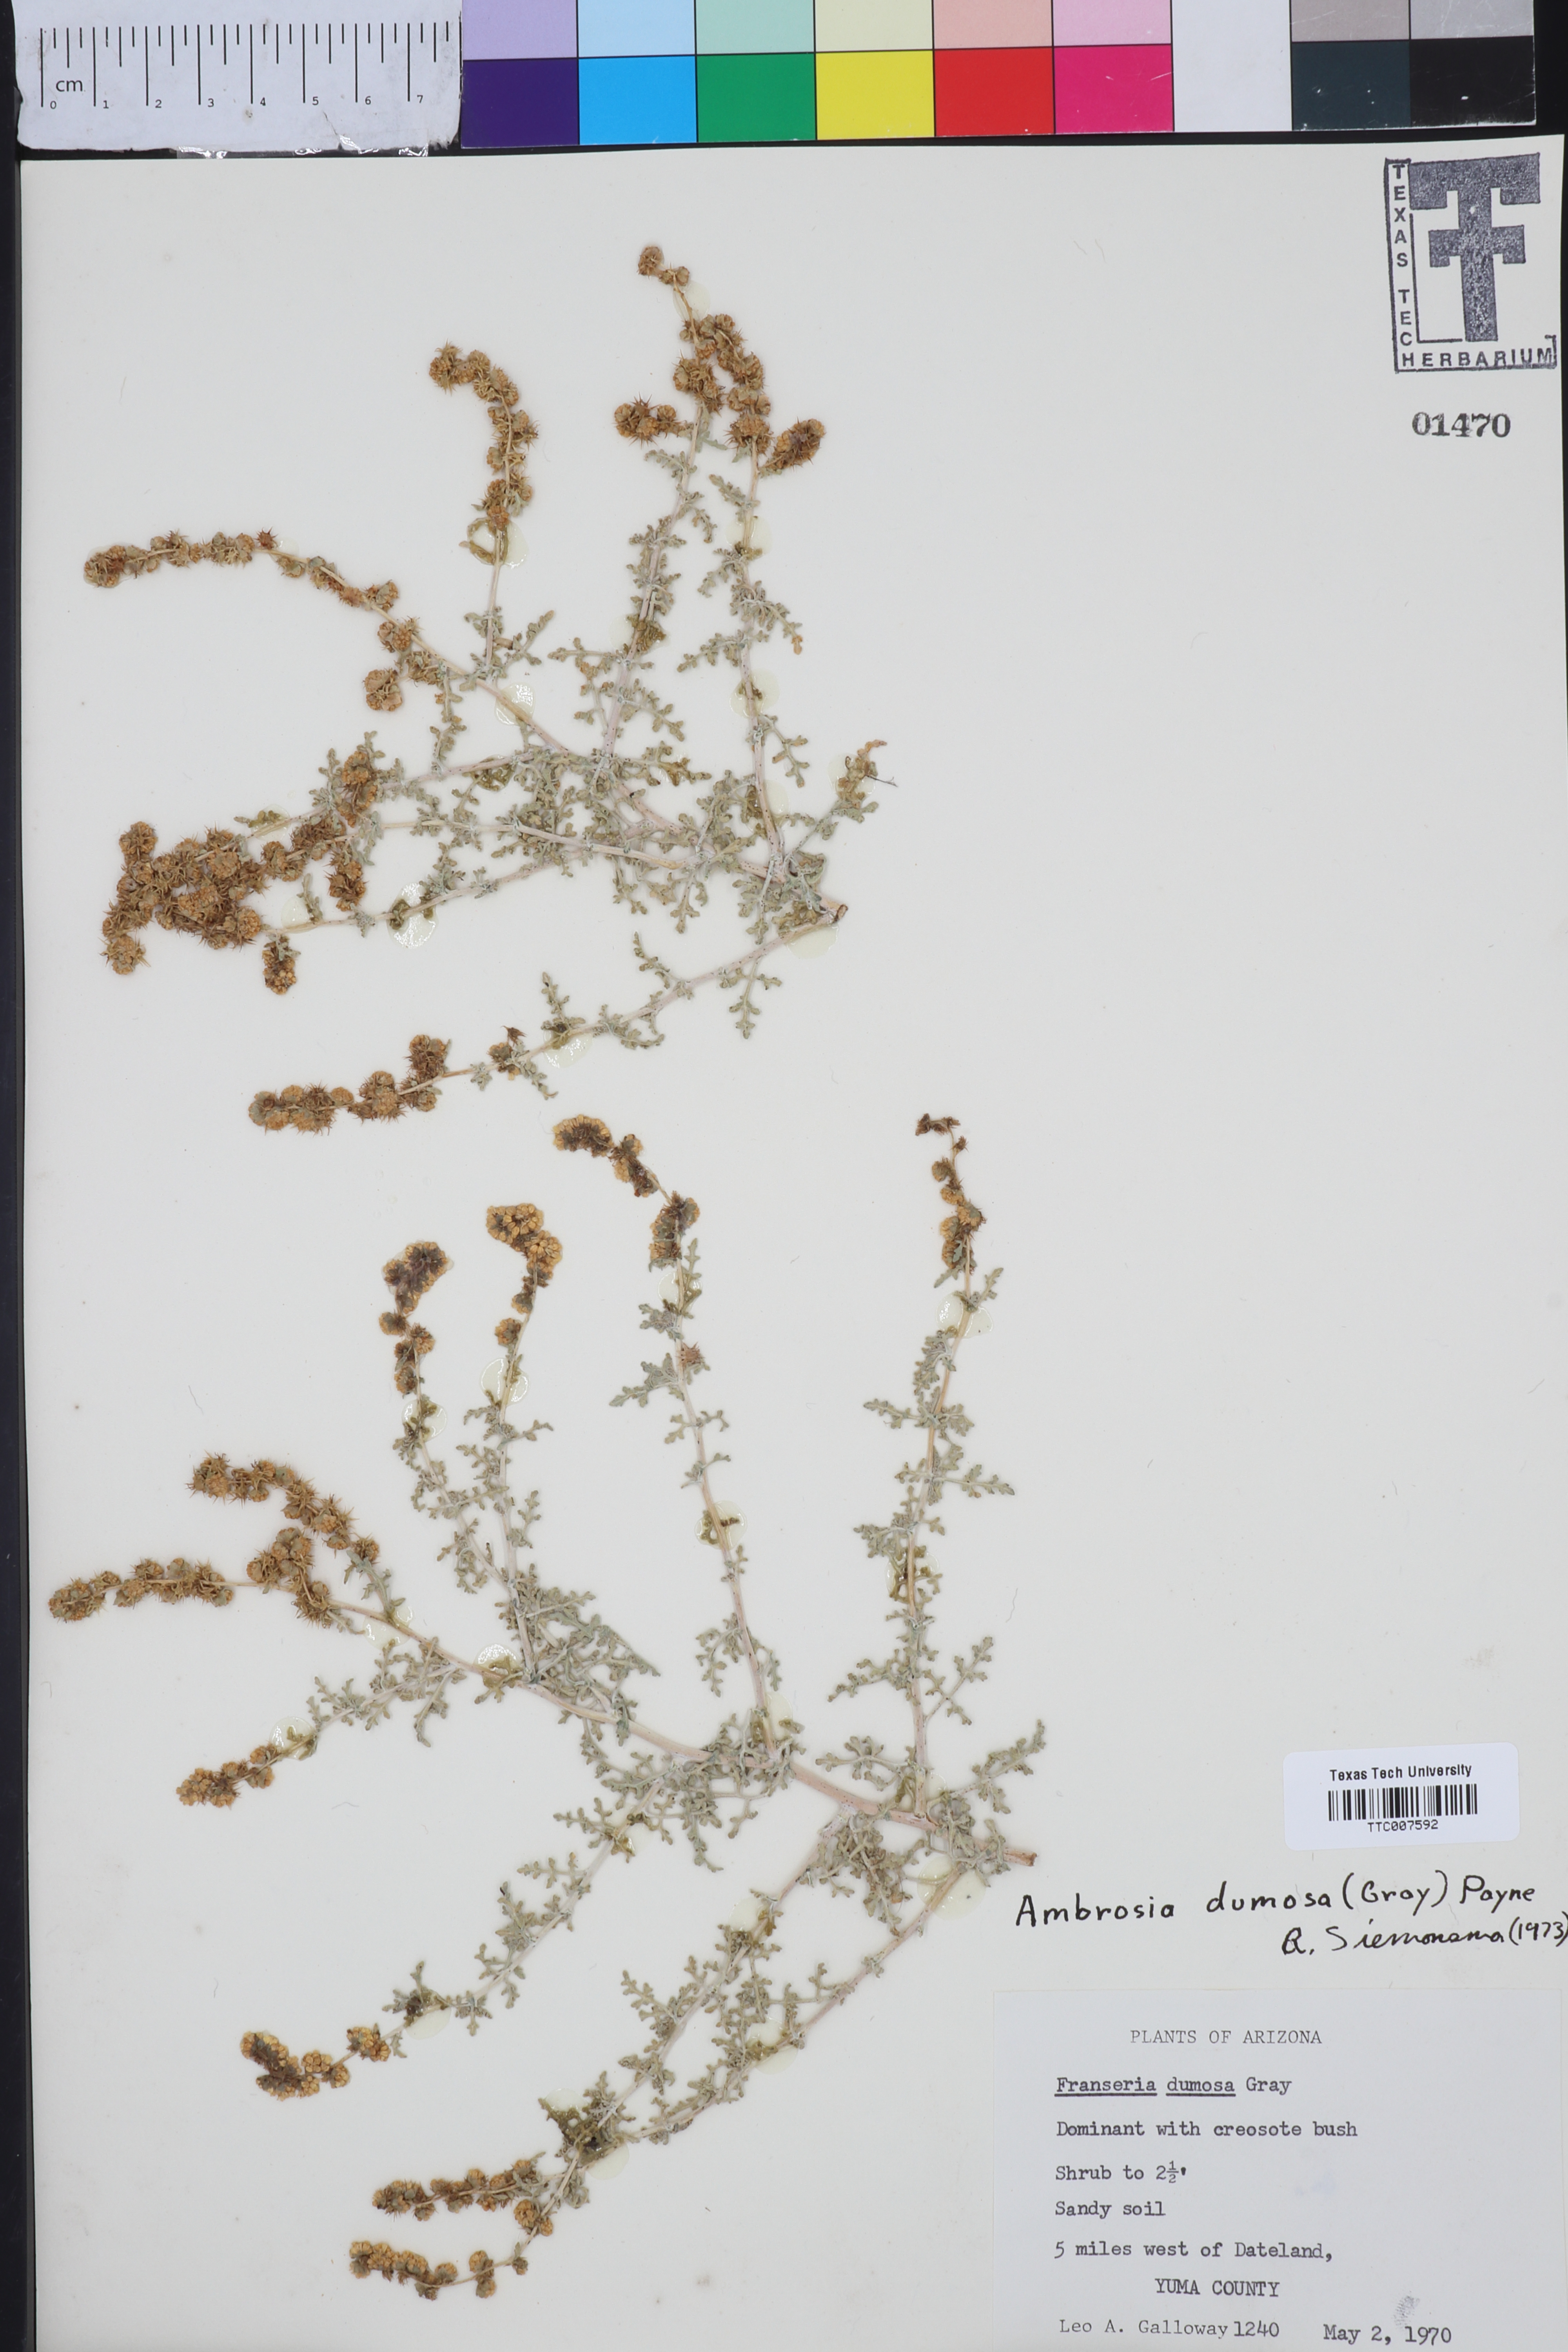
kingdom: Plantae
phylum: Tracheophyta
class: Magnoliopsida
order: Asterales
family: Asteraceae
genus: Ambrosia
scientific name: Ambrosia dumosa
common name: Bur-sage
